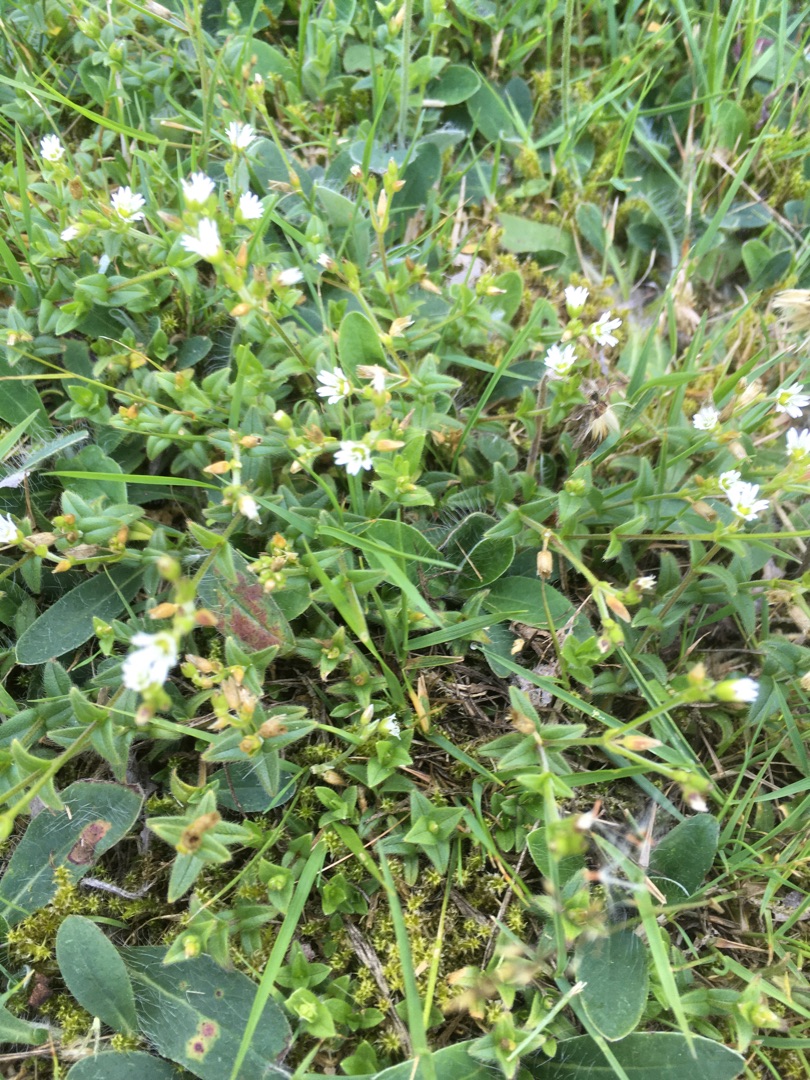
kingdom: Plantae
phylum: Tracheophyta
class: Magnoliopsida
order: Caryophyllales
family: Caryophyllaceae
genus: Cerastium
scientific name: Cerastium fontanum
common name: Almindelig hønsetarm
